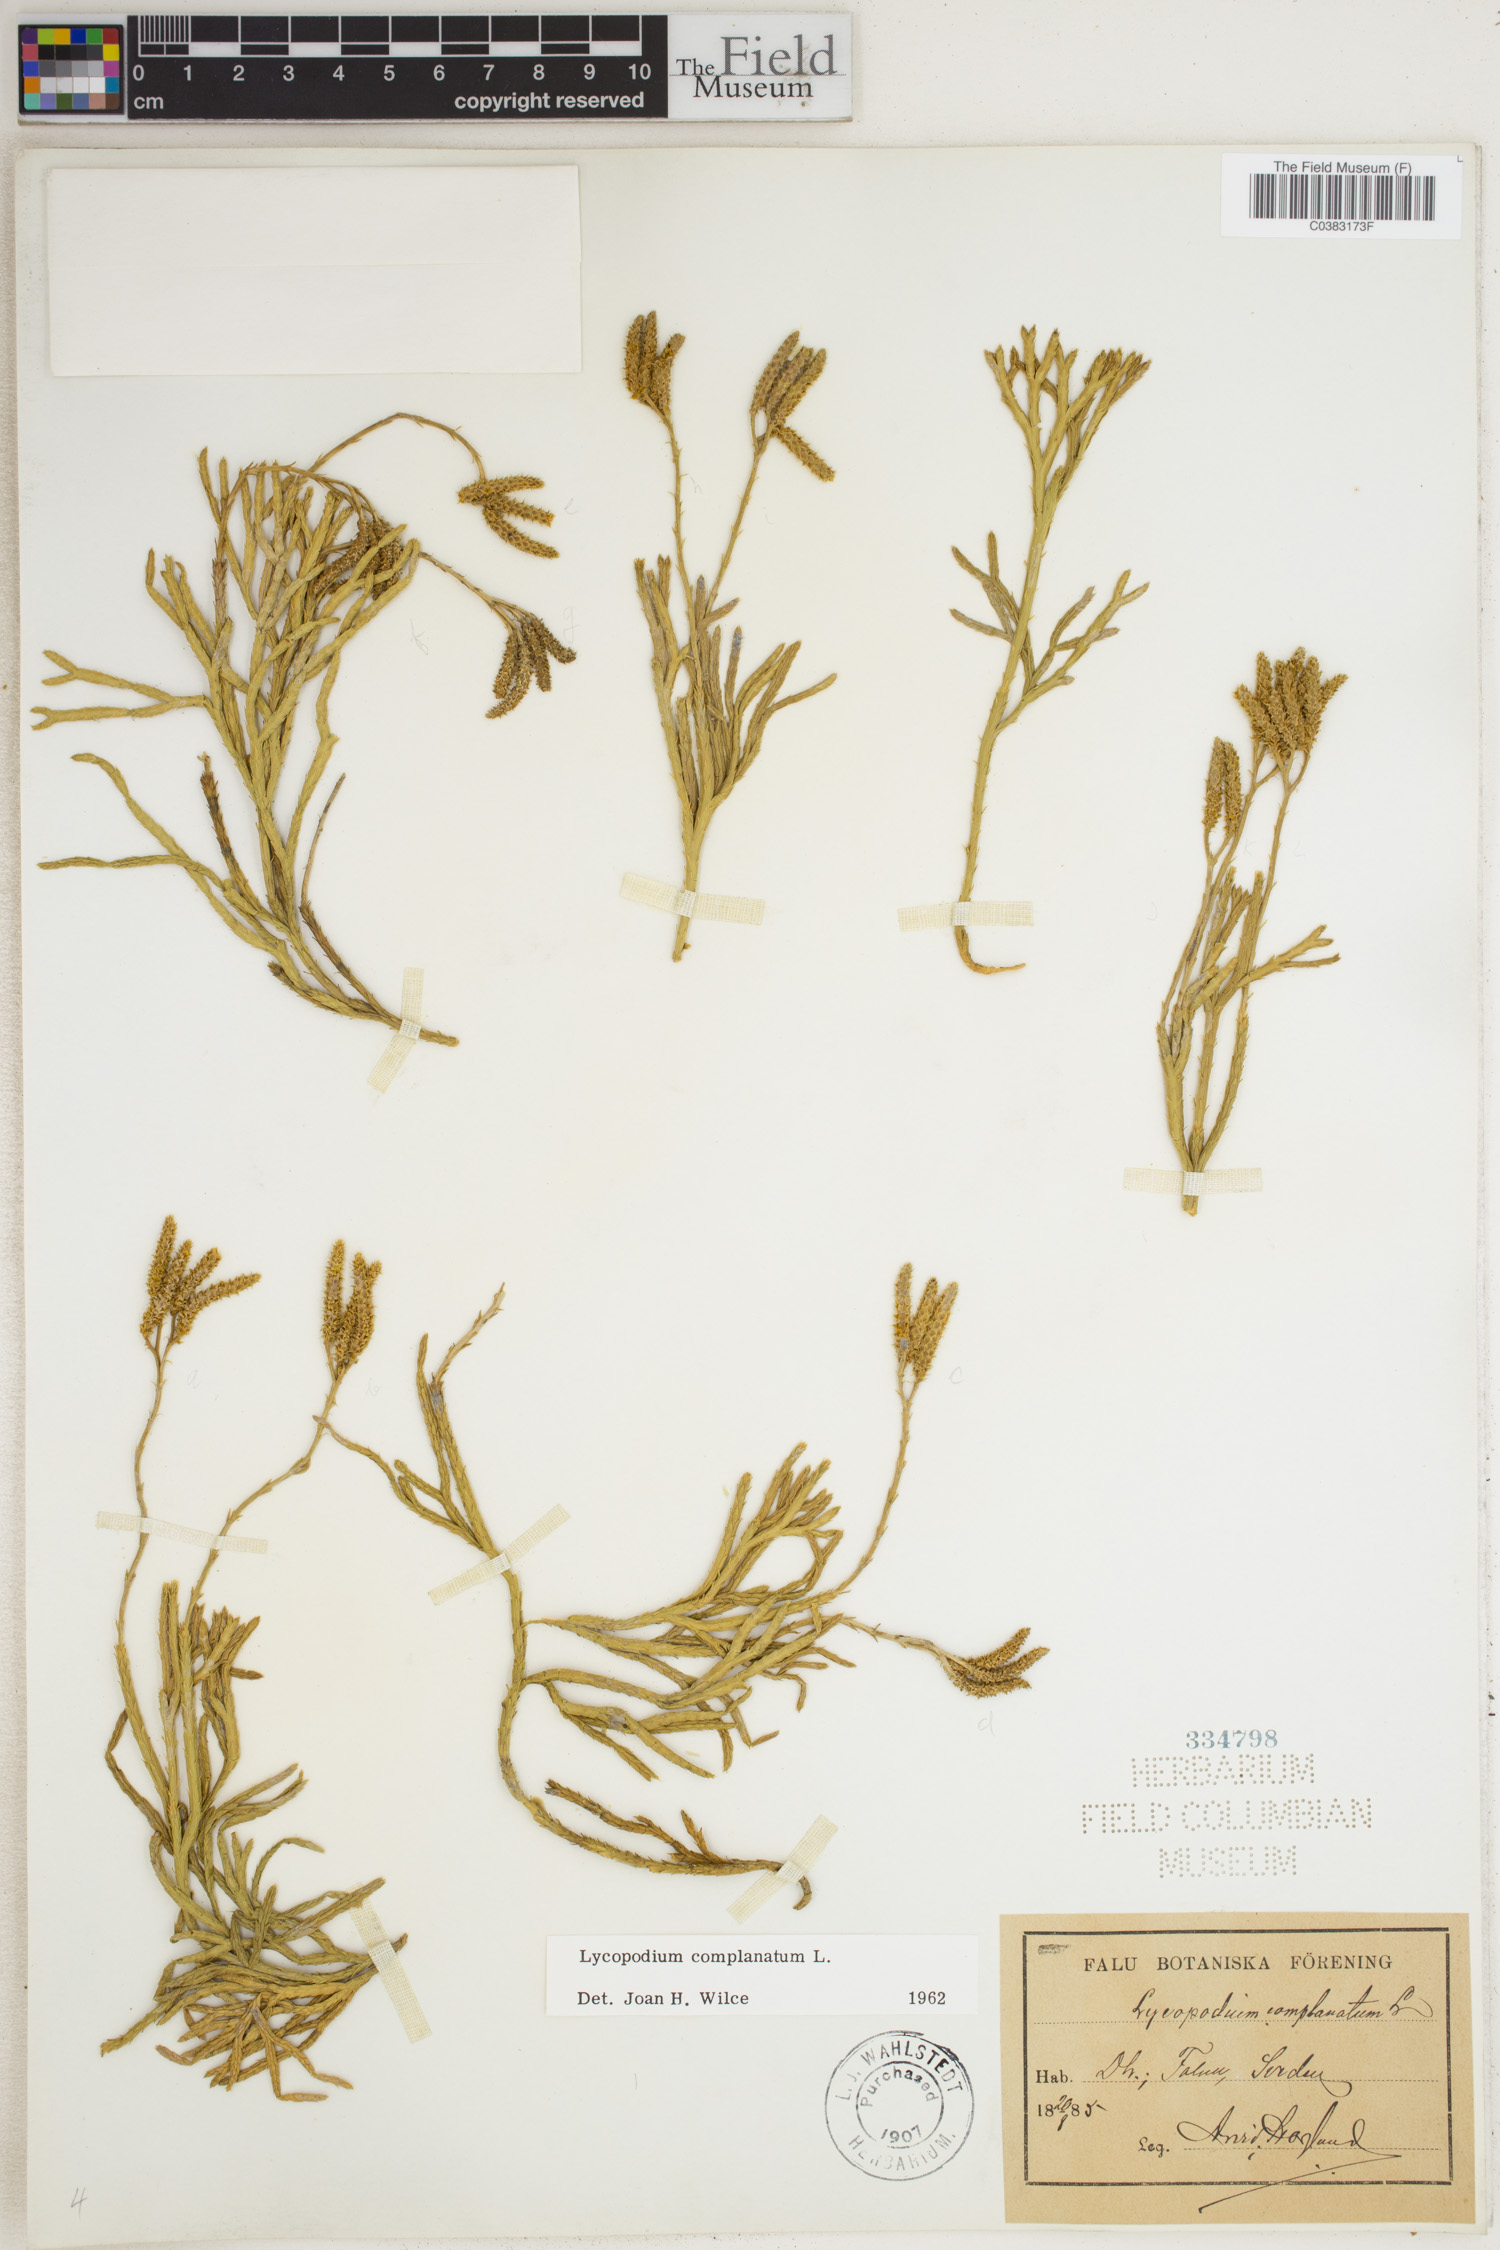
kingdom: Plantae
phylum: Tracheophyta
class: Lycopodiopsida
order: Lycopodiales
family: Lycopodiaceae
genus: Diphasiastrum
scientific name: Diphasiastrum complanatum
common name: Northern running-pine
